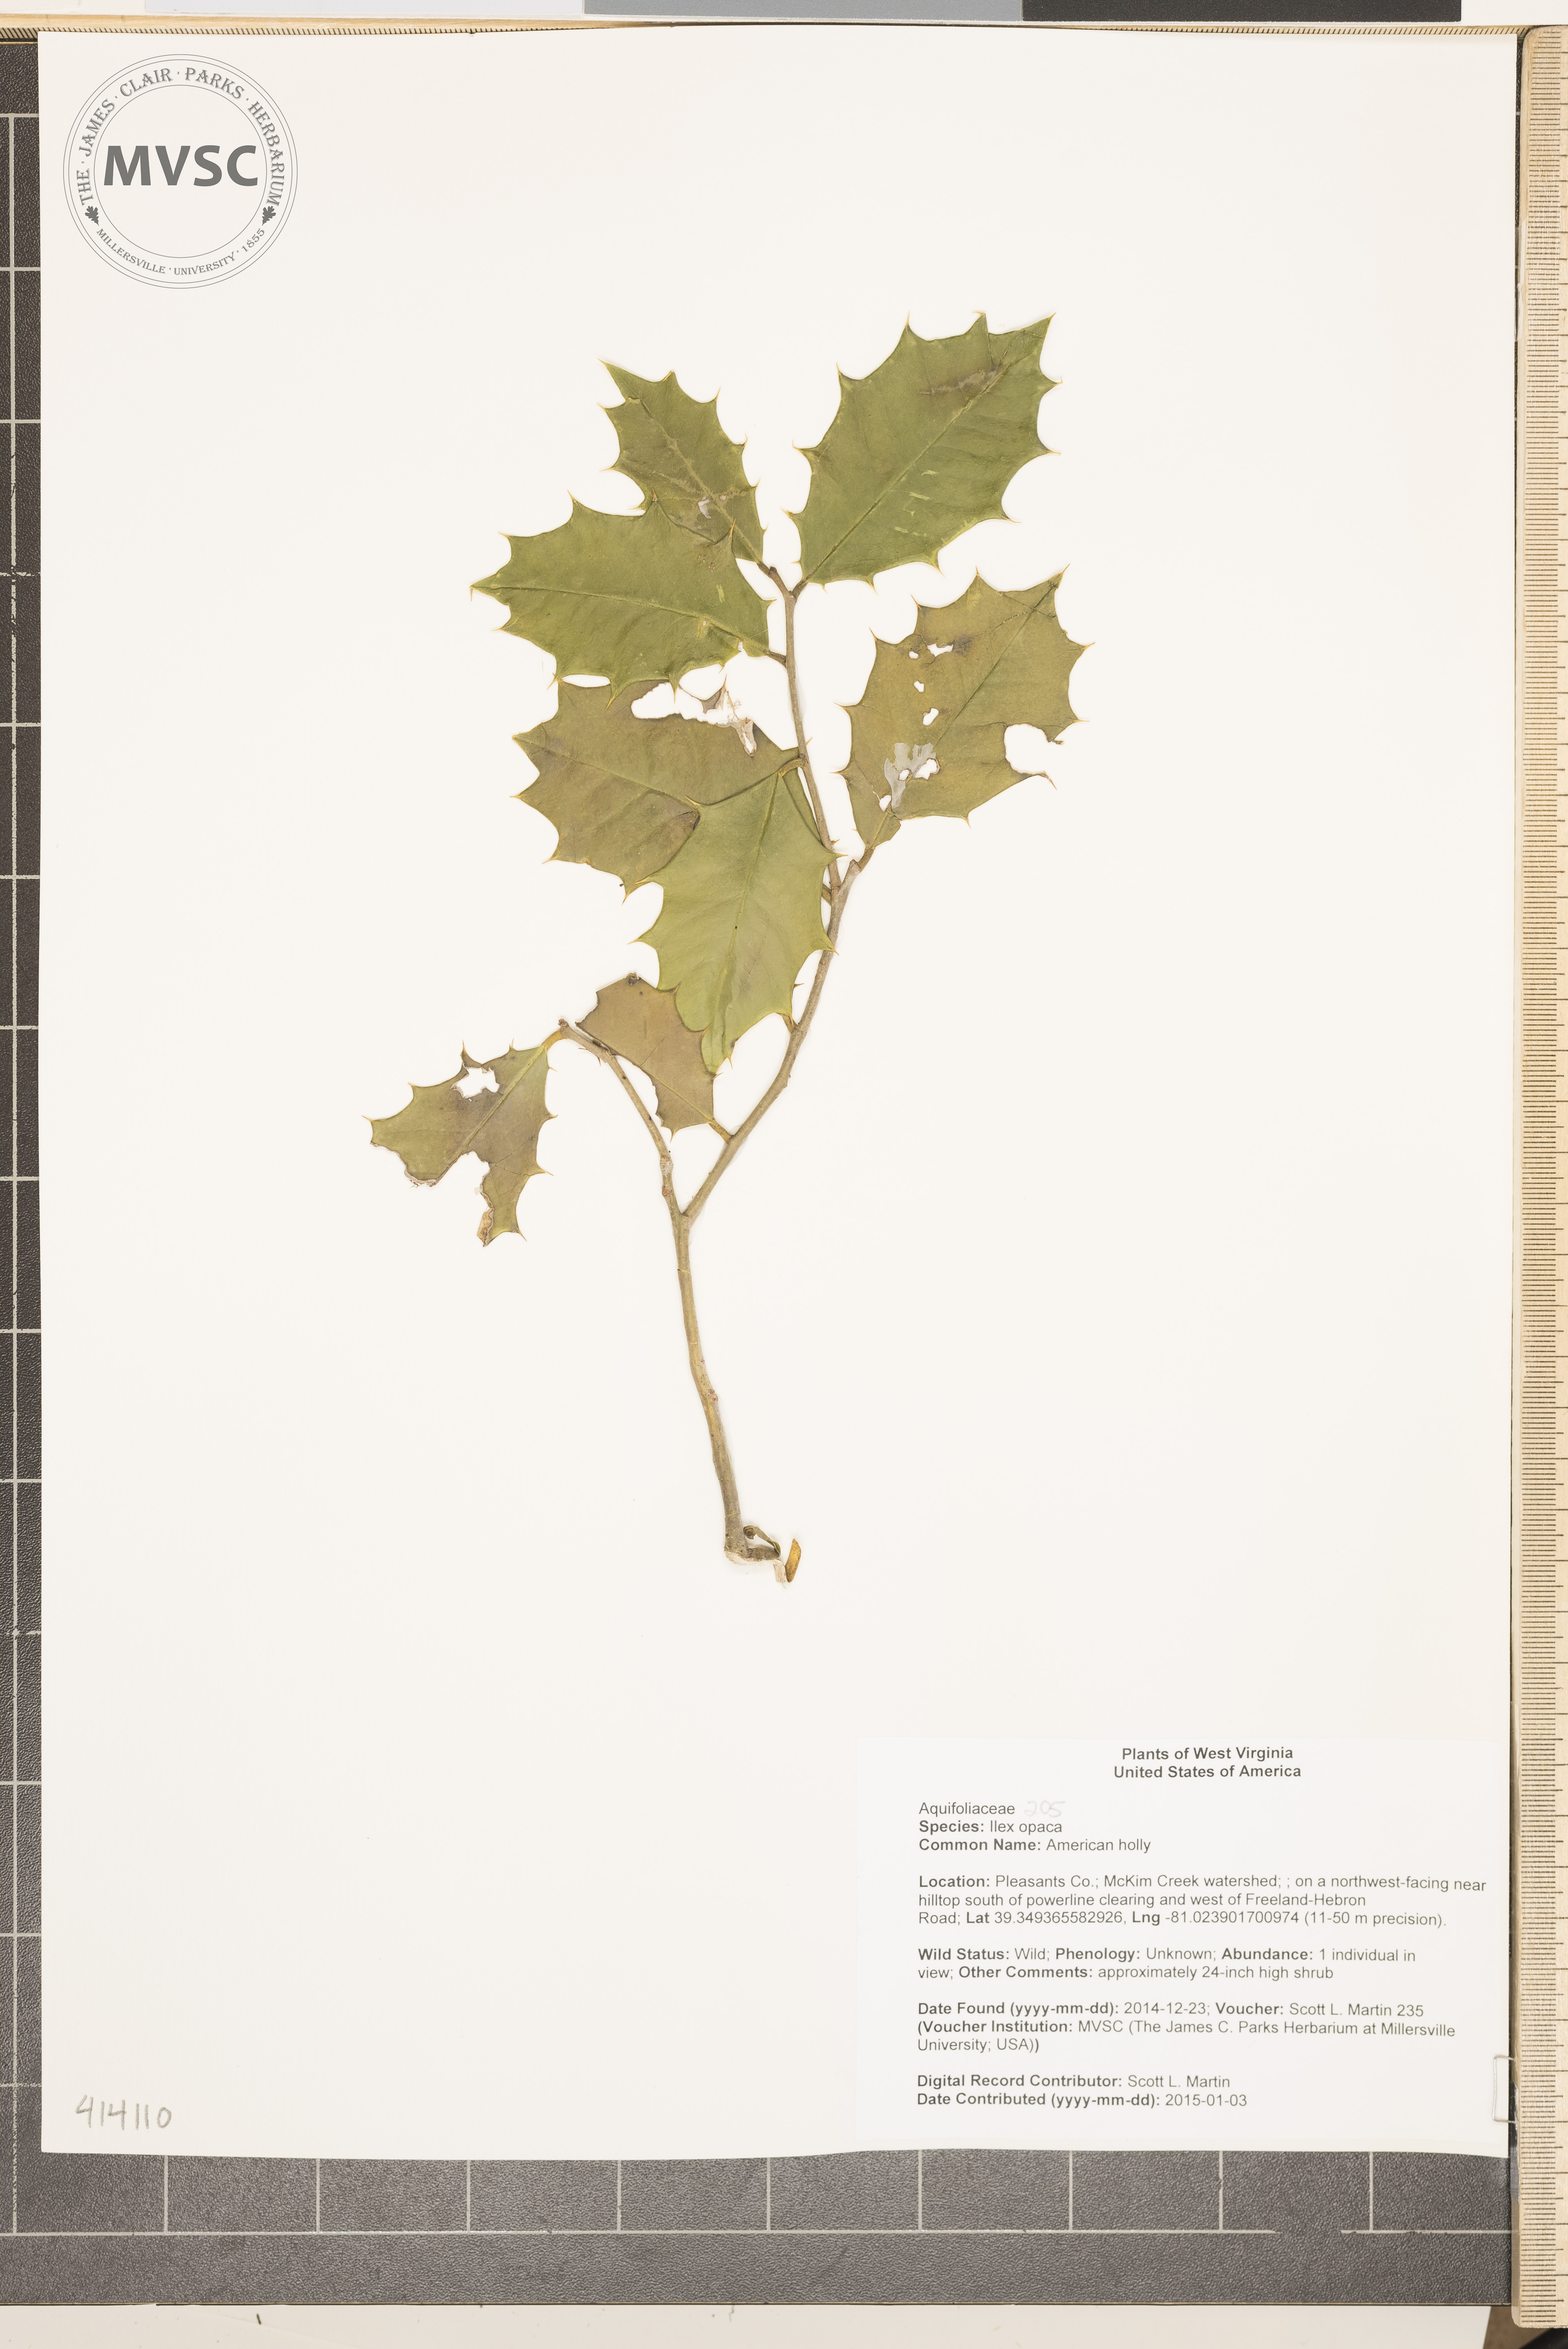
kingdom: Plantae
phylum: Tracheophyta
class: Magnoliopsida
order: Aquifoliales
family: Aquifoliaceae
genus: Ilex
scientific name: Ilex opaca
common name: American holly
